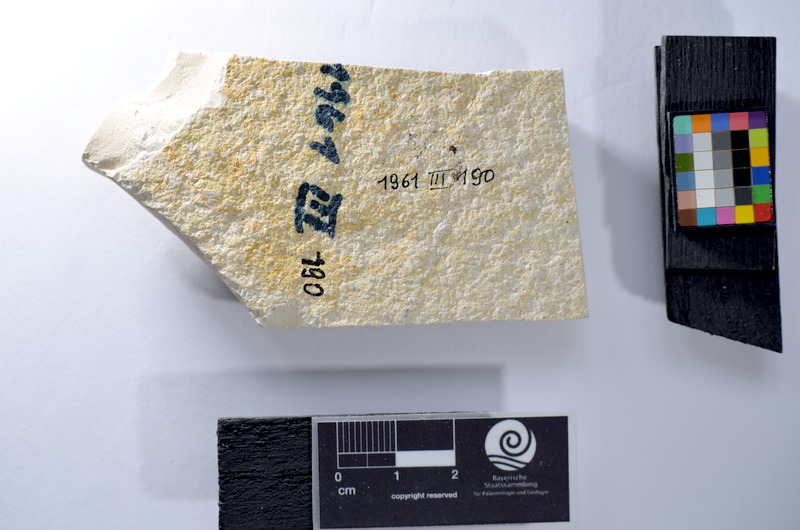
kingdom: Animalia
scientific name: Animalia
